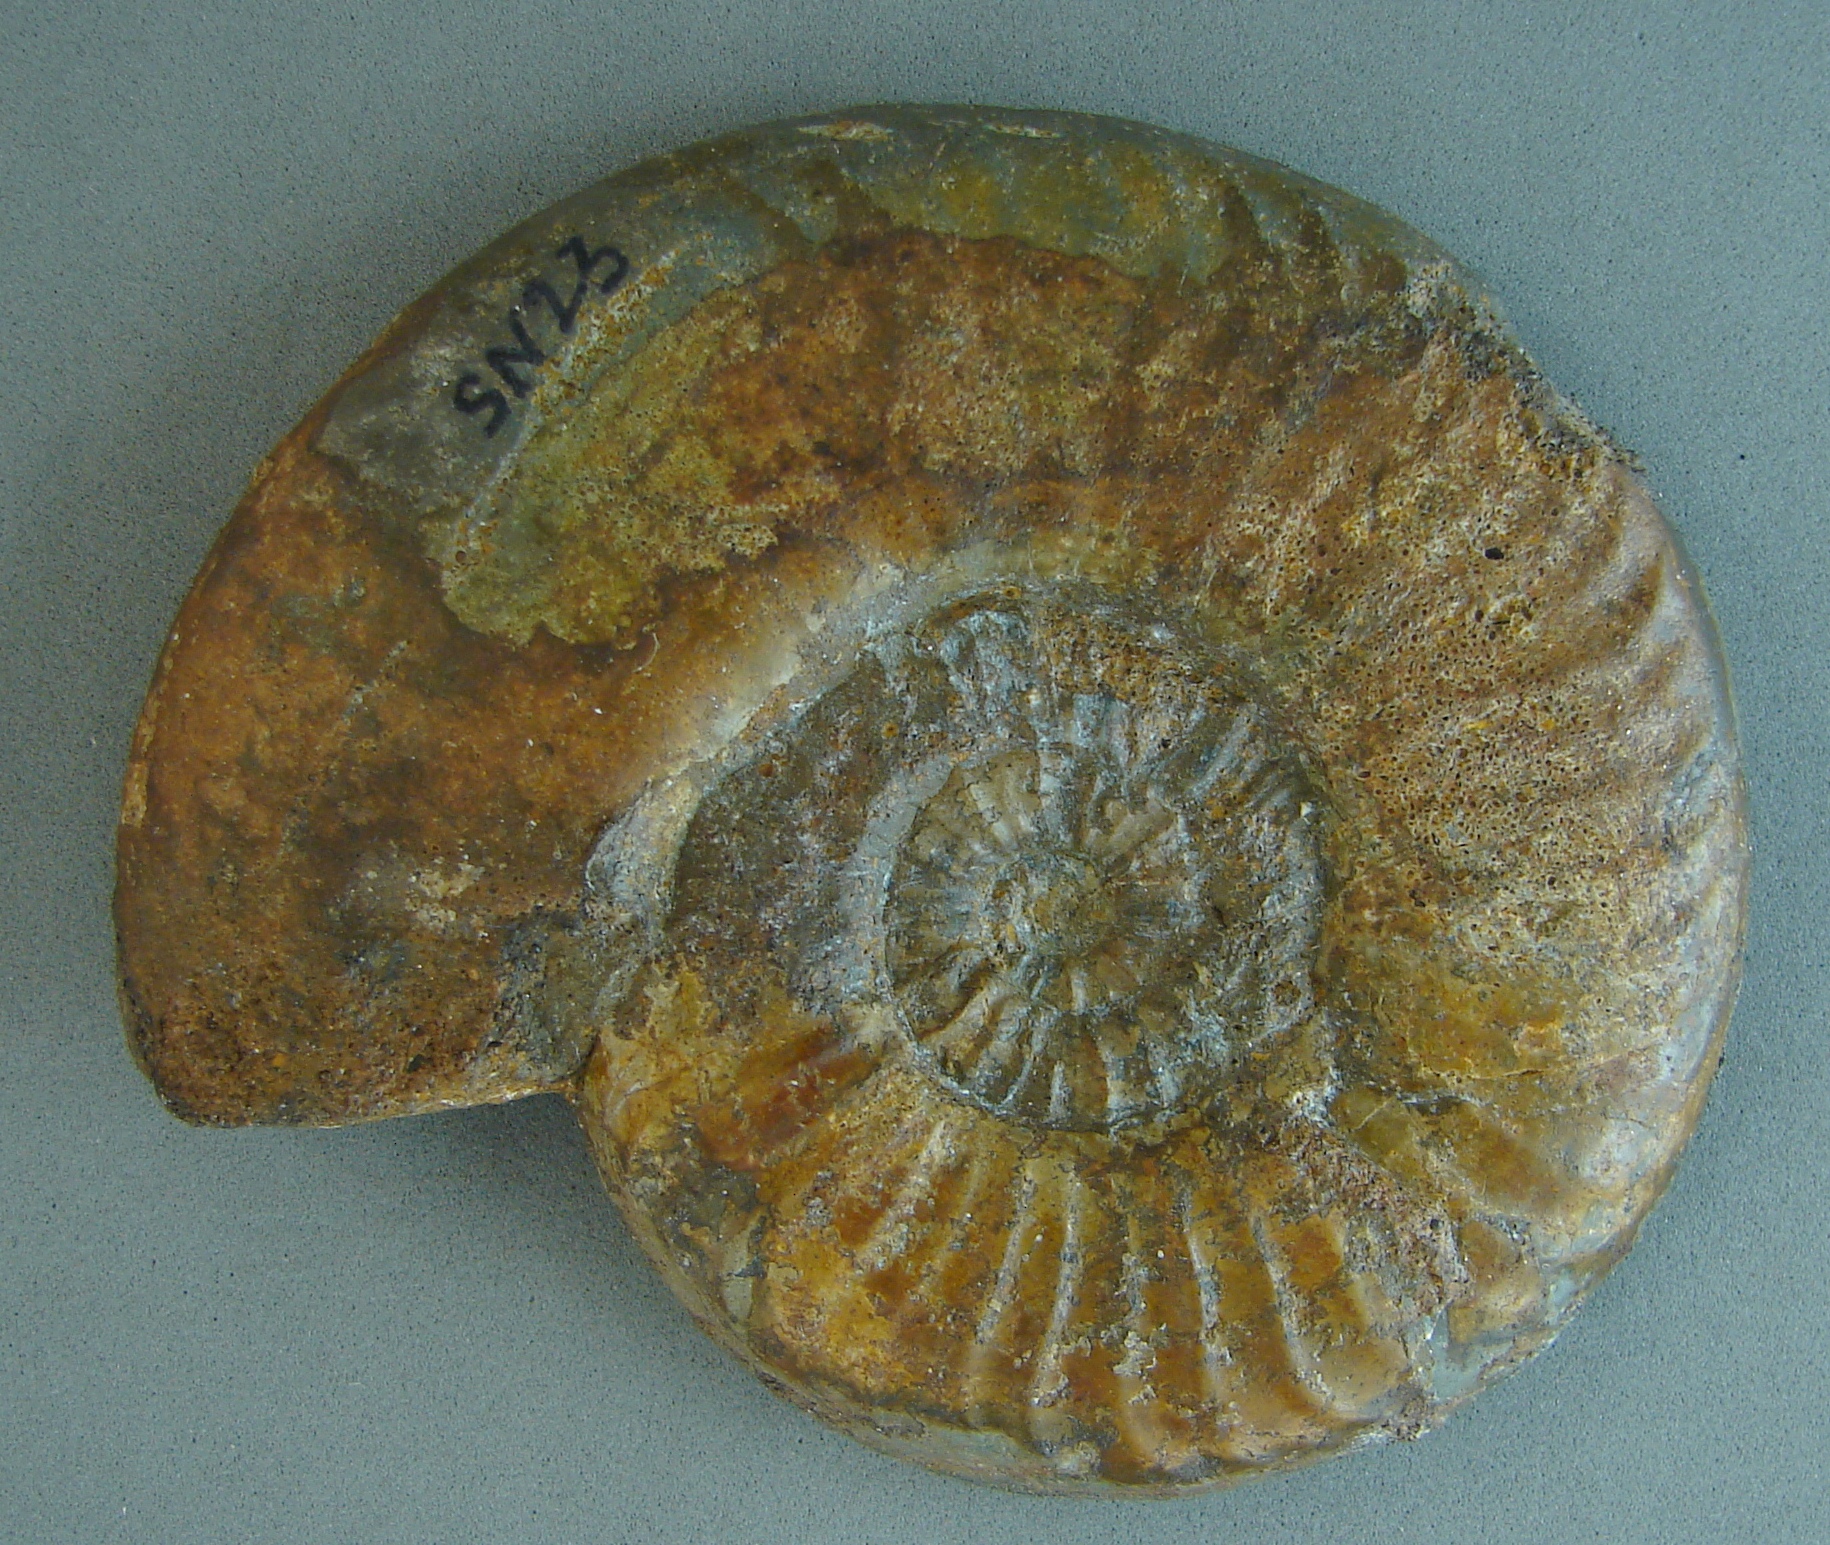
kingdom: Animalia
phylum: Mollusca
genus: Walkericeras
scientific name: Walkericeras
